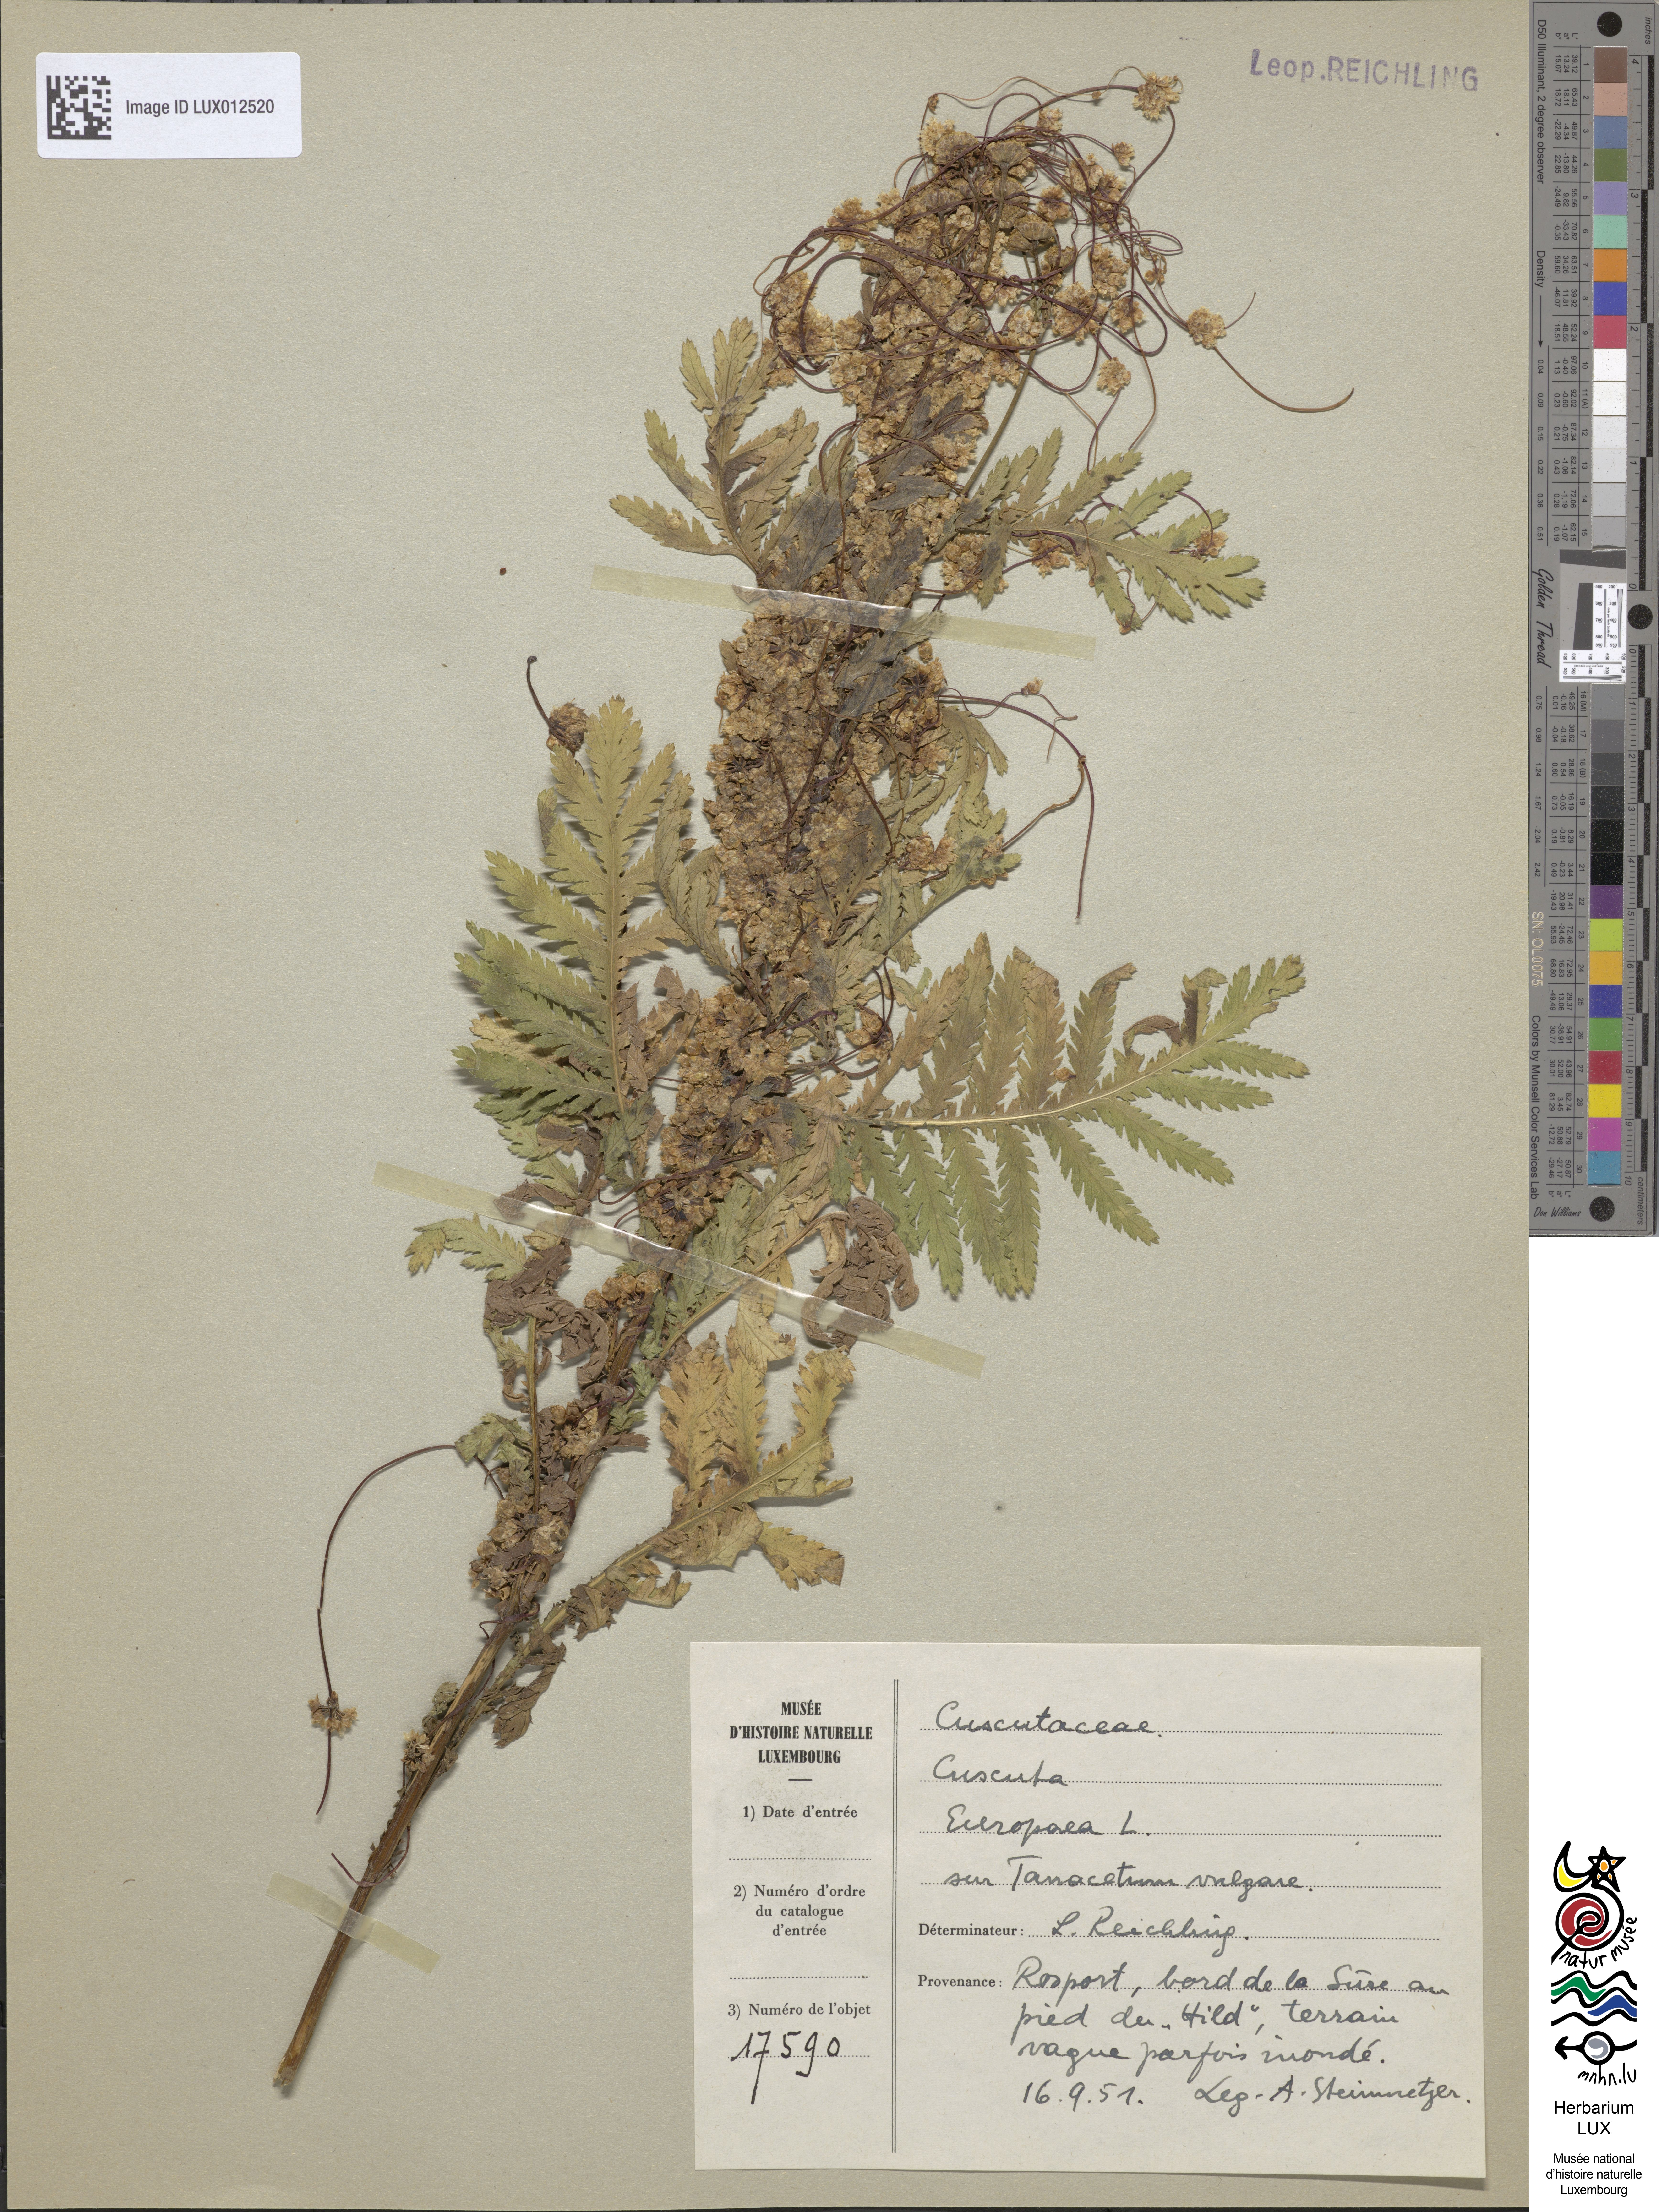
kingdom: Plantae
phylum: Tracheophyta
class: Magnoliopsida
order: Solanales
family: Convolvulaceae
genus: Cuscuta
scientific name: Cuscuta europaea
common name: Greater dodder
